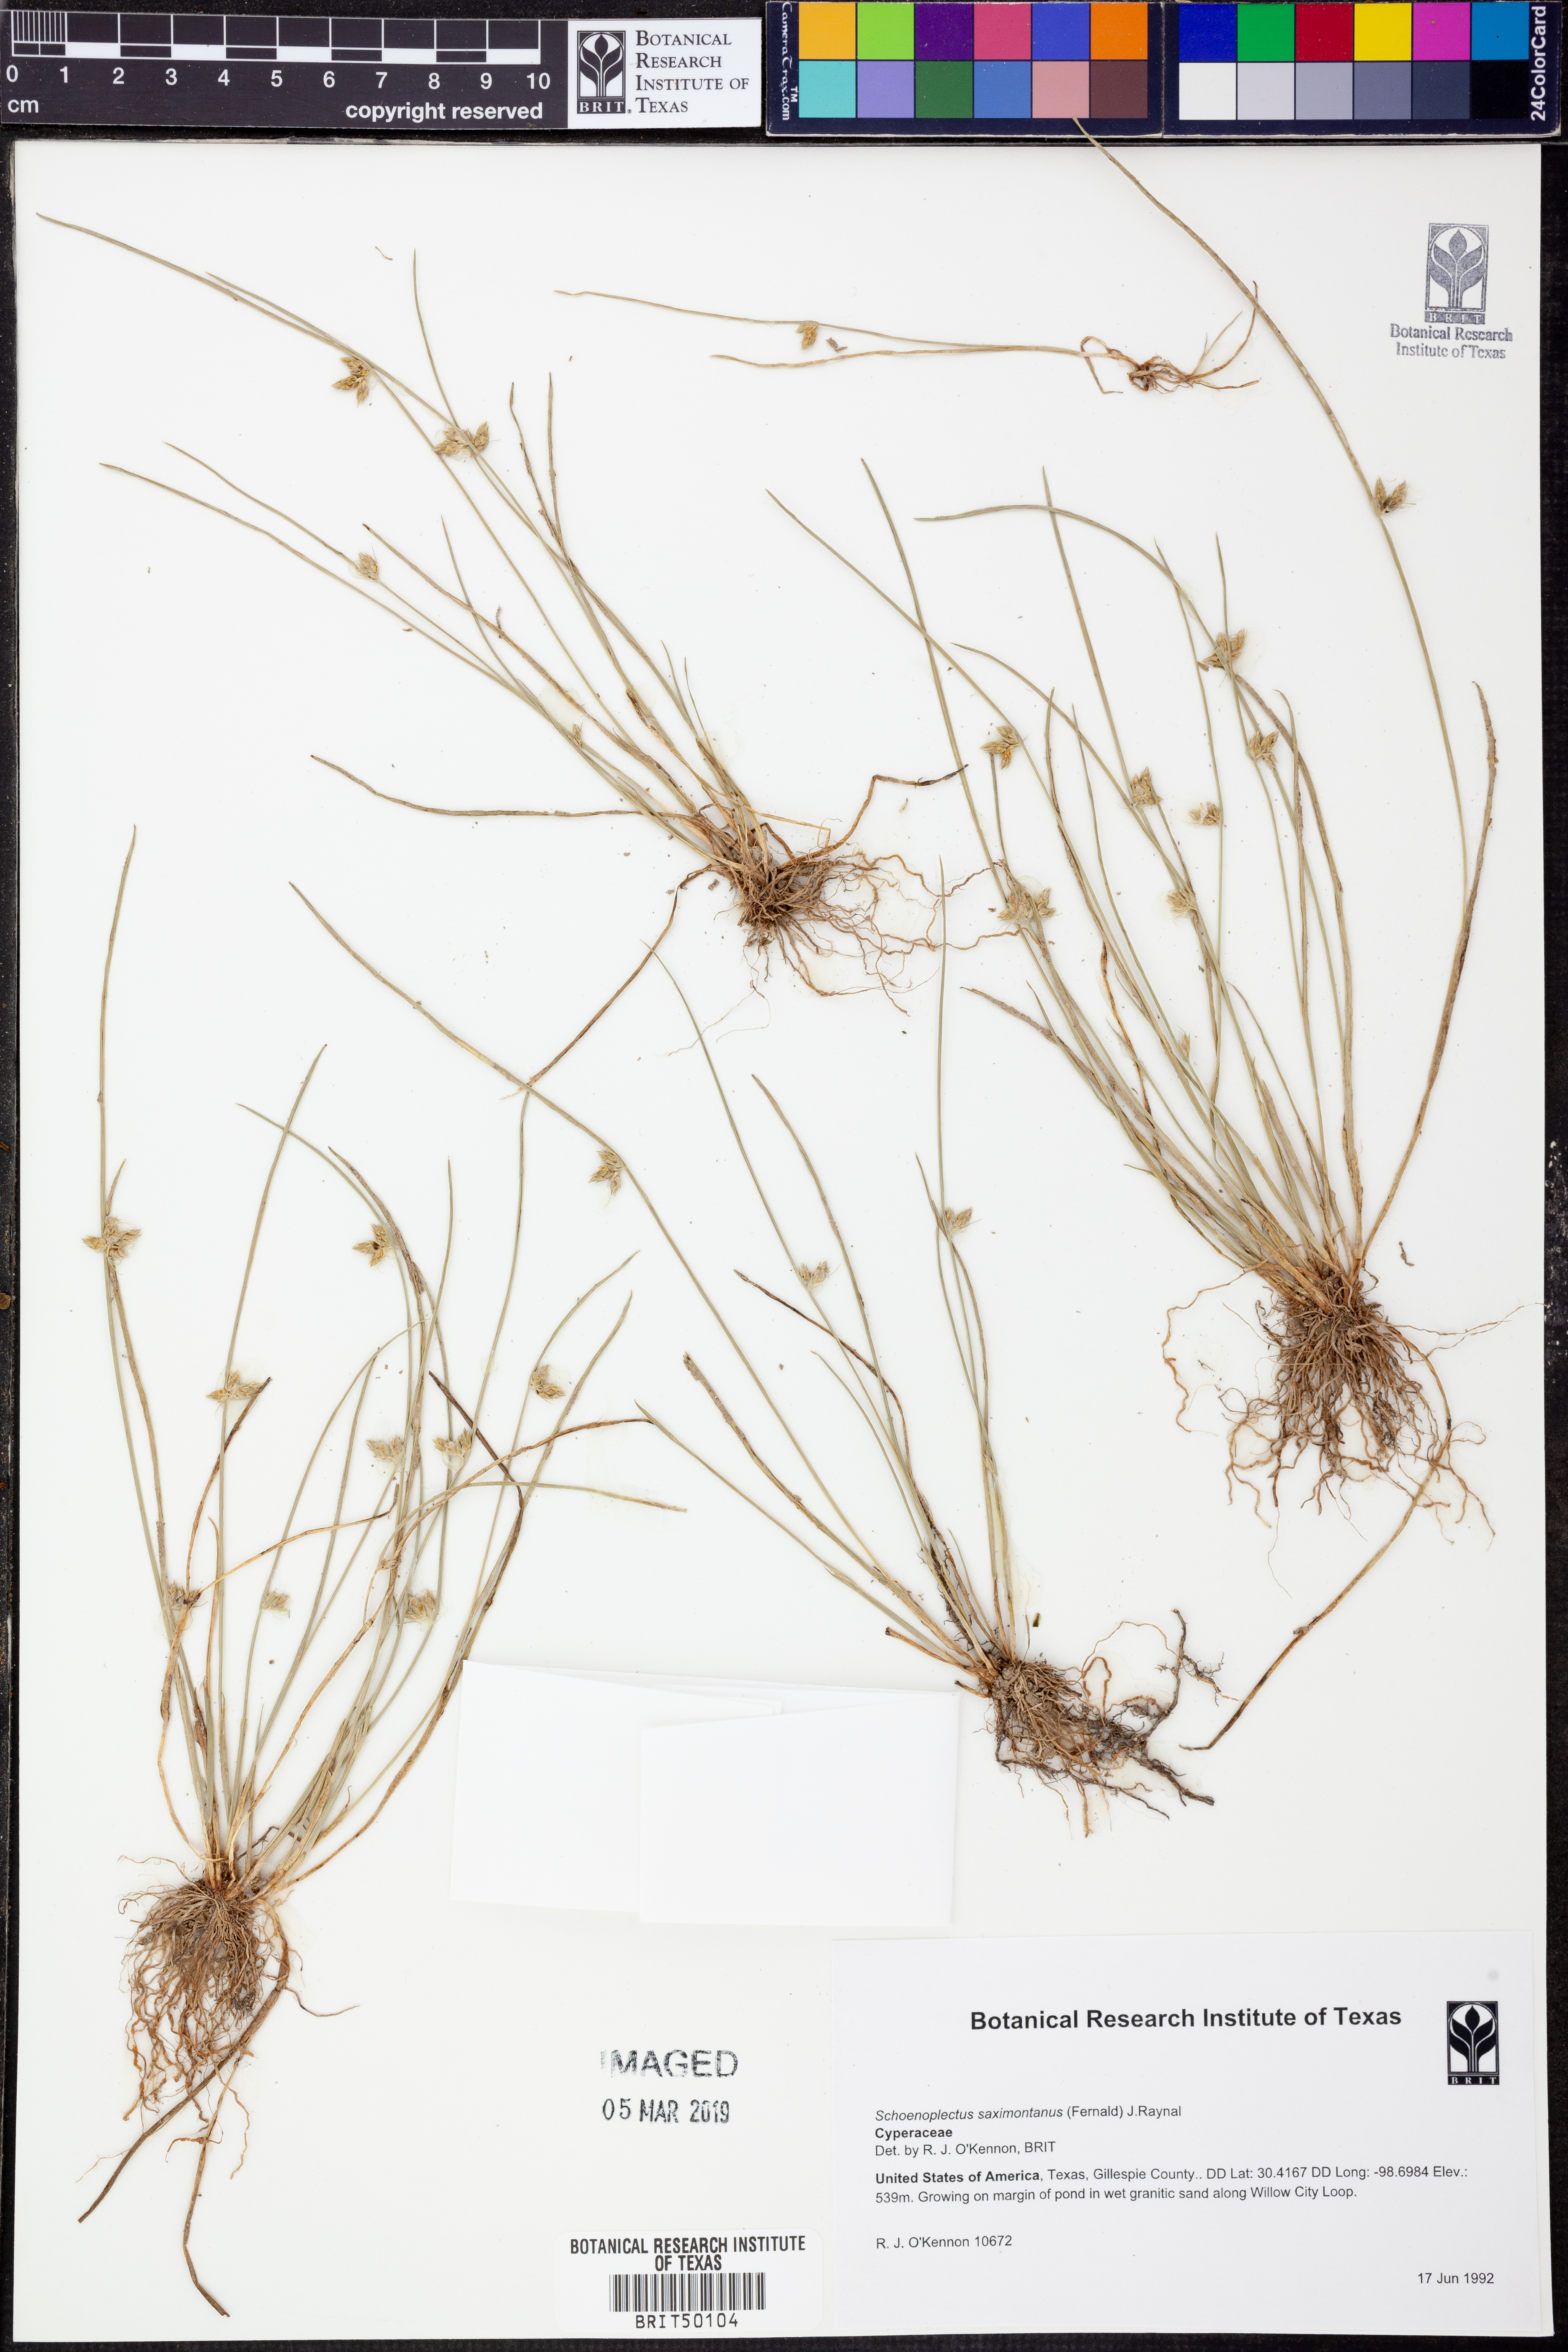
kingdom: Plantae
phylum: Tracheophyta
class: Liliopsida
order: Poales
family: Cyperaceae
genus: Schoenoplectiella
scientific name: Schoenoplectiella saximontana
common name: Rocky mountain clubrush
